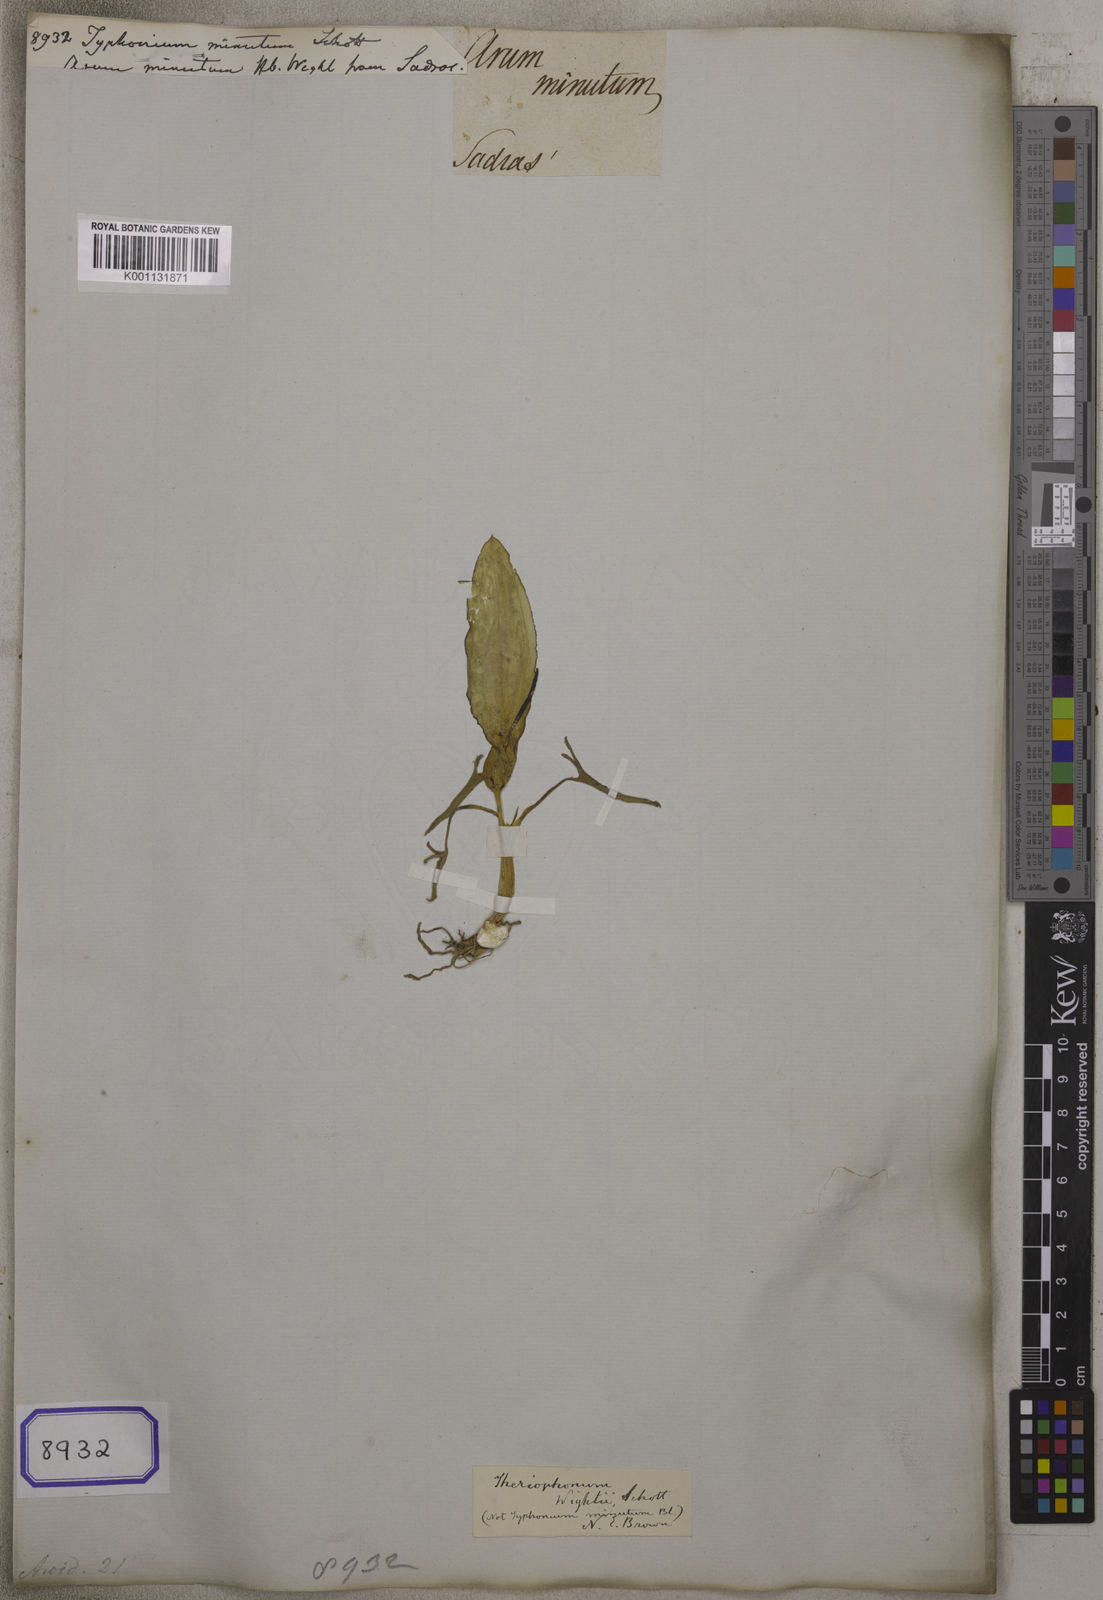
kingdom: Plantae
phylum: Tracheophyta
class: Liliopsida
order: Alismatales
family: Araceae
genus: Theriophonum
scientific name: Theriophonum minutum
